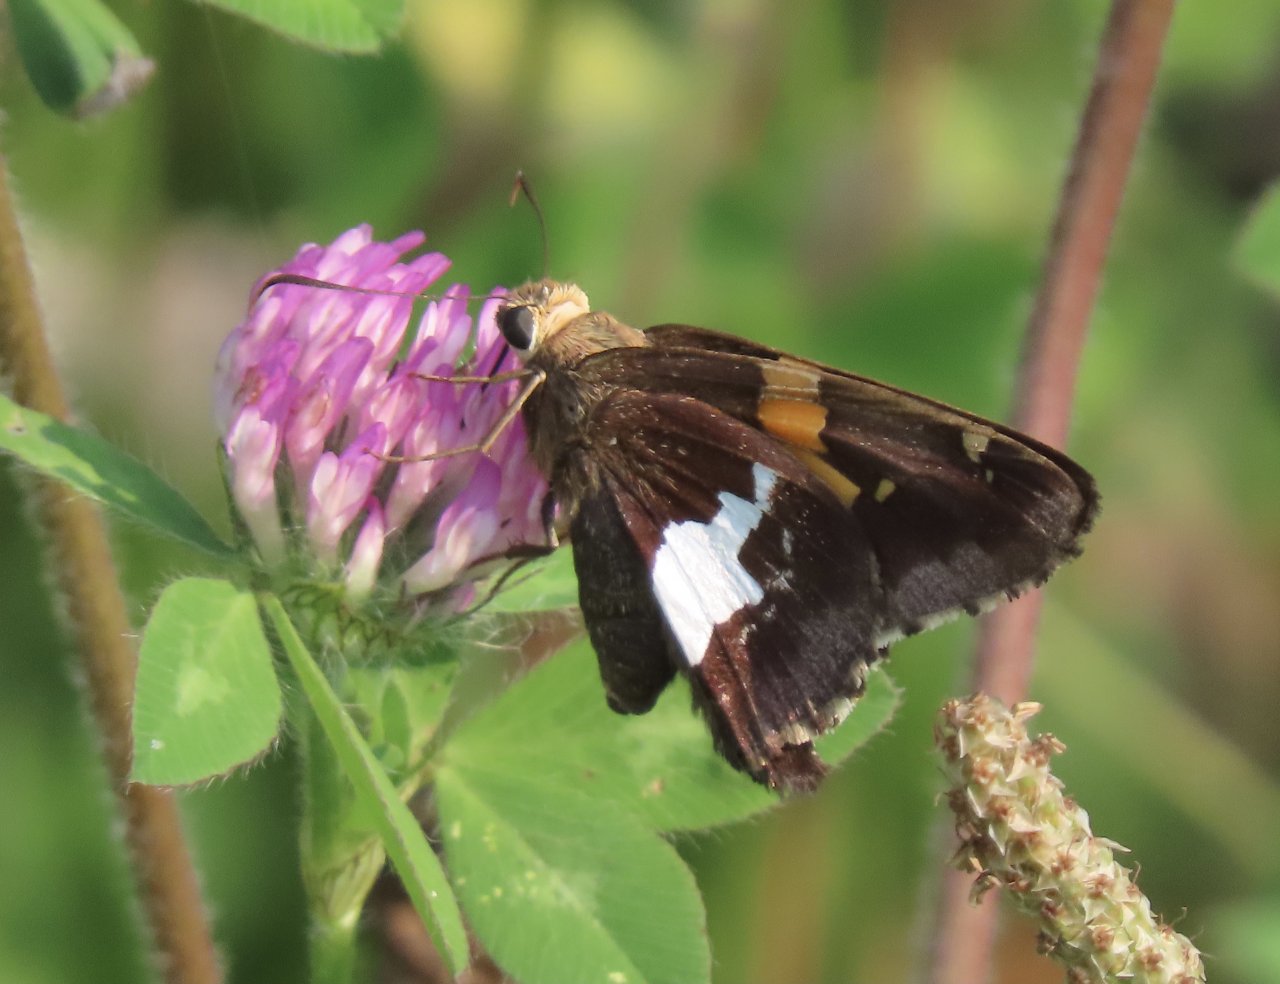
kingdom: Animalia
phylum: Arthropoda
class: Insecta
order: Lepidoptera
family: Hesperiidae
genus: Epargyreus
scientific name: Epargyreus clarus
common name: Silver-spotted Skipper
